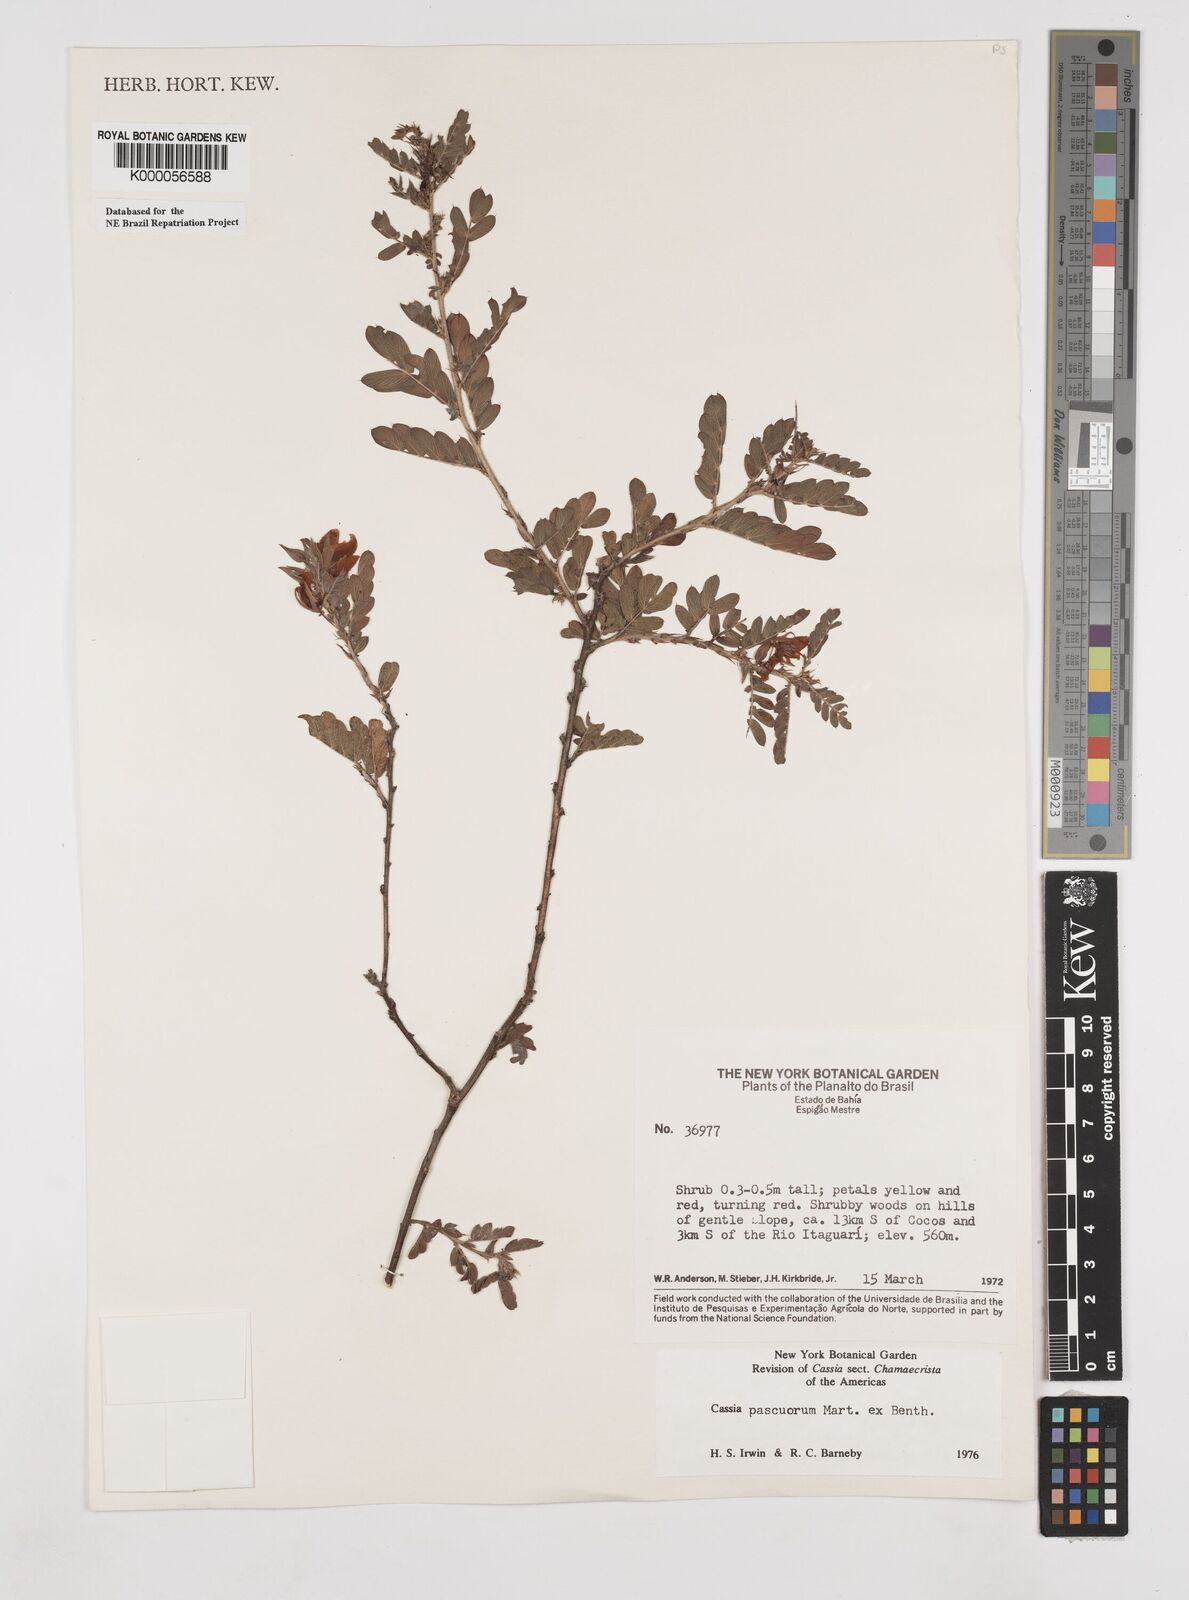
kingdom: Plantae
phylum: Tracheophyta
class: Magnoliopsida
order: Fabales
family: Fabaceae
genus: Chamaecrista
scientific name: Chamaecrista pascuorum
